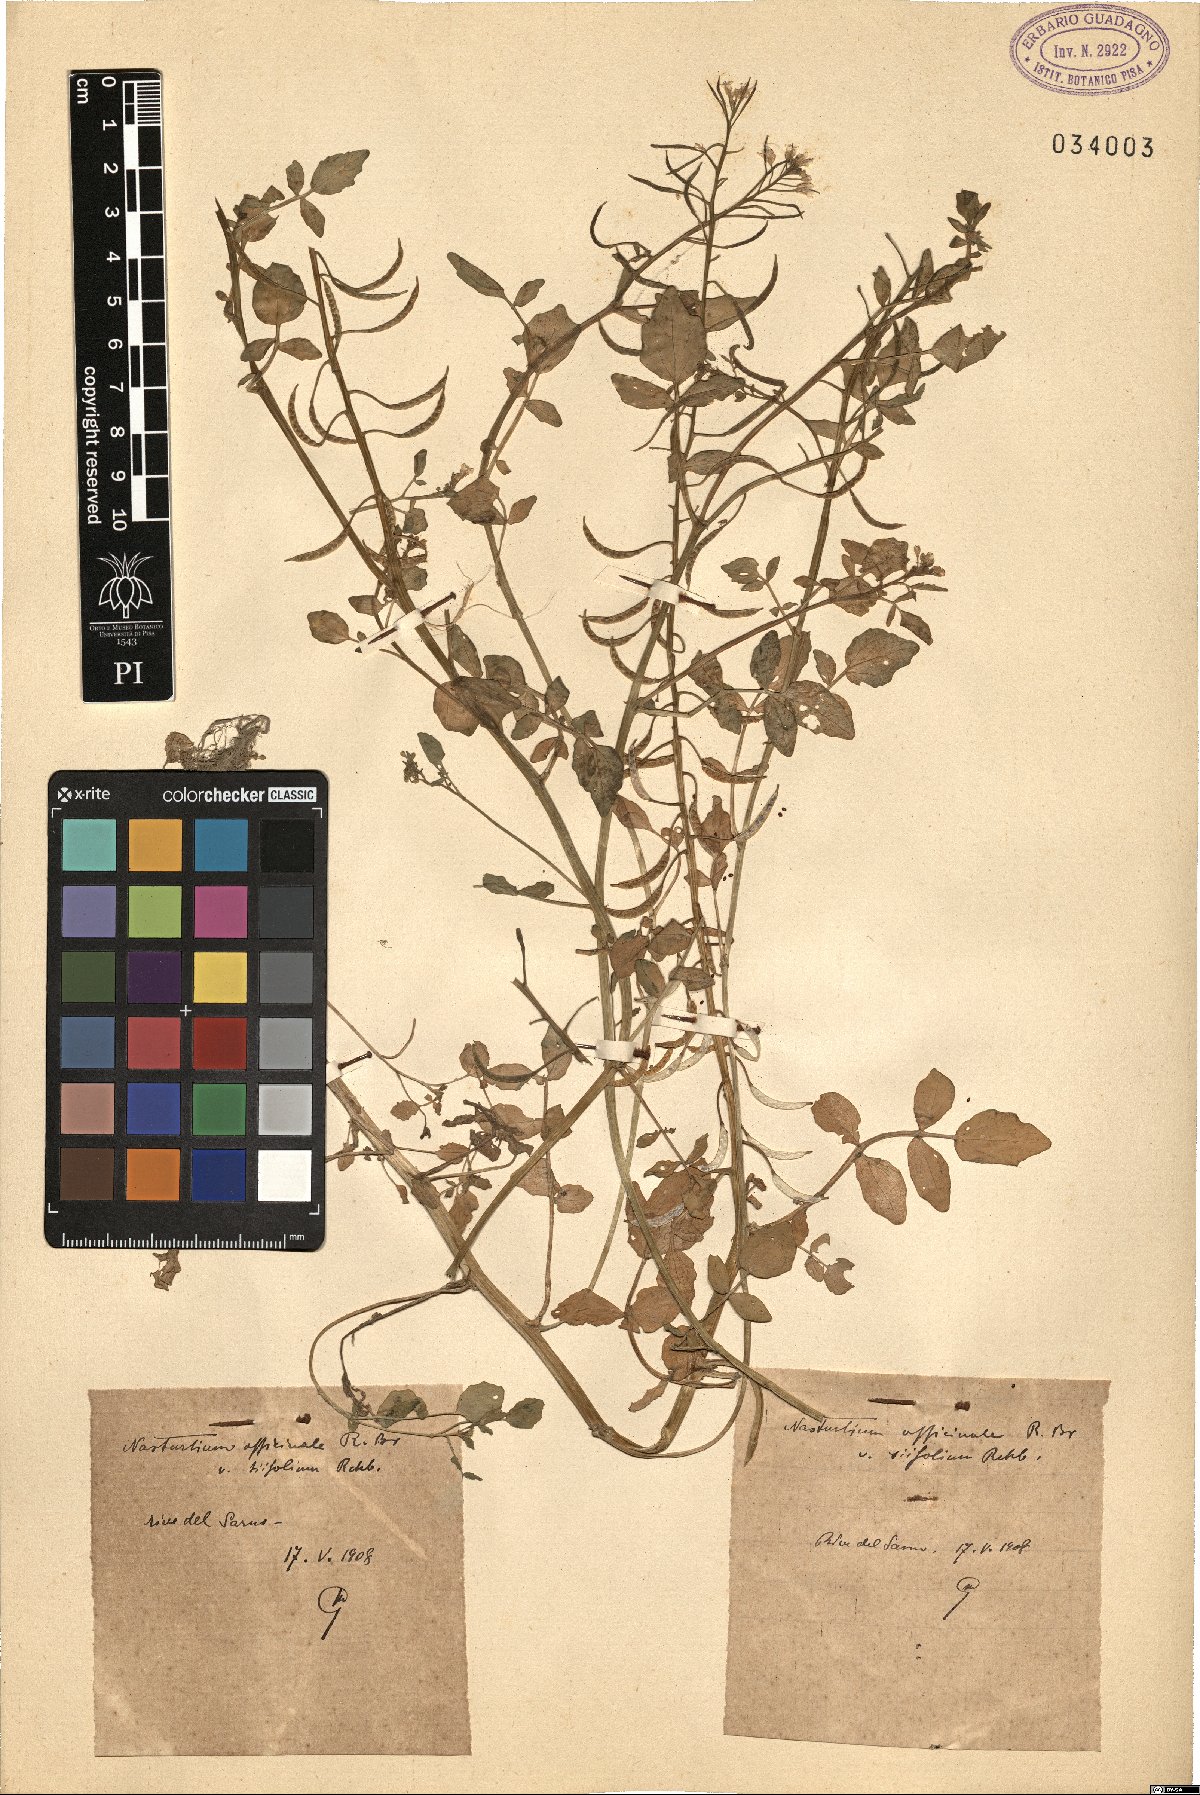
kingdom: Plantae
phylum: Tracheophyta
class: Magnoliopsida
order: Brassicales
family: Brassicaceae
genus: Nasturtium
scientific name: Nasturtium officinale
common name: Watercress
